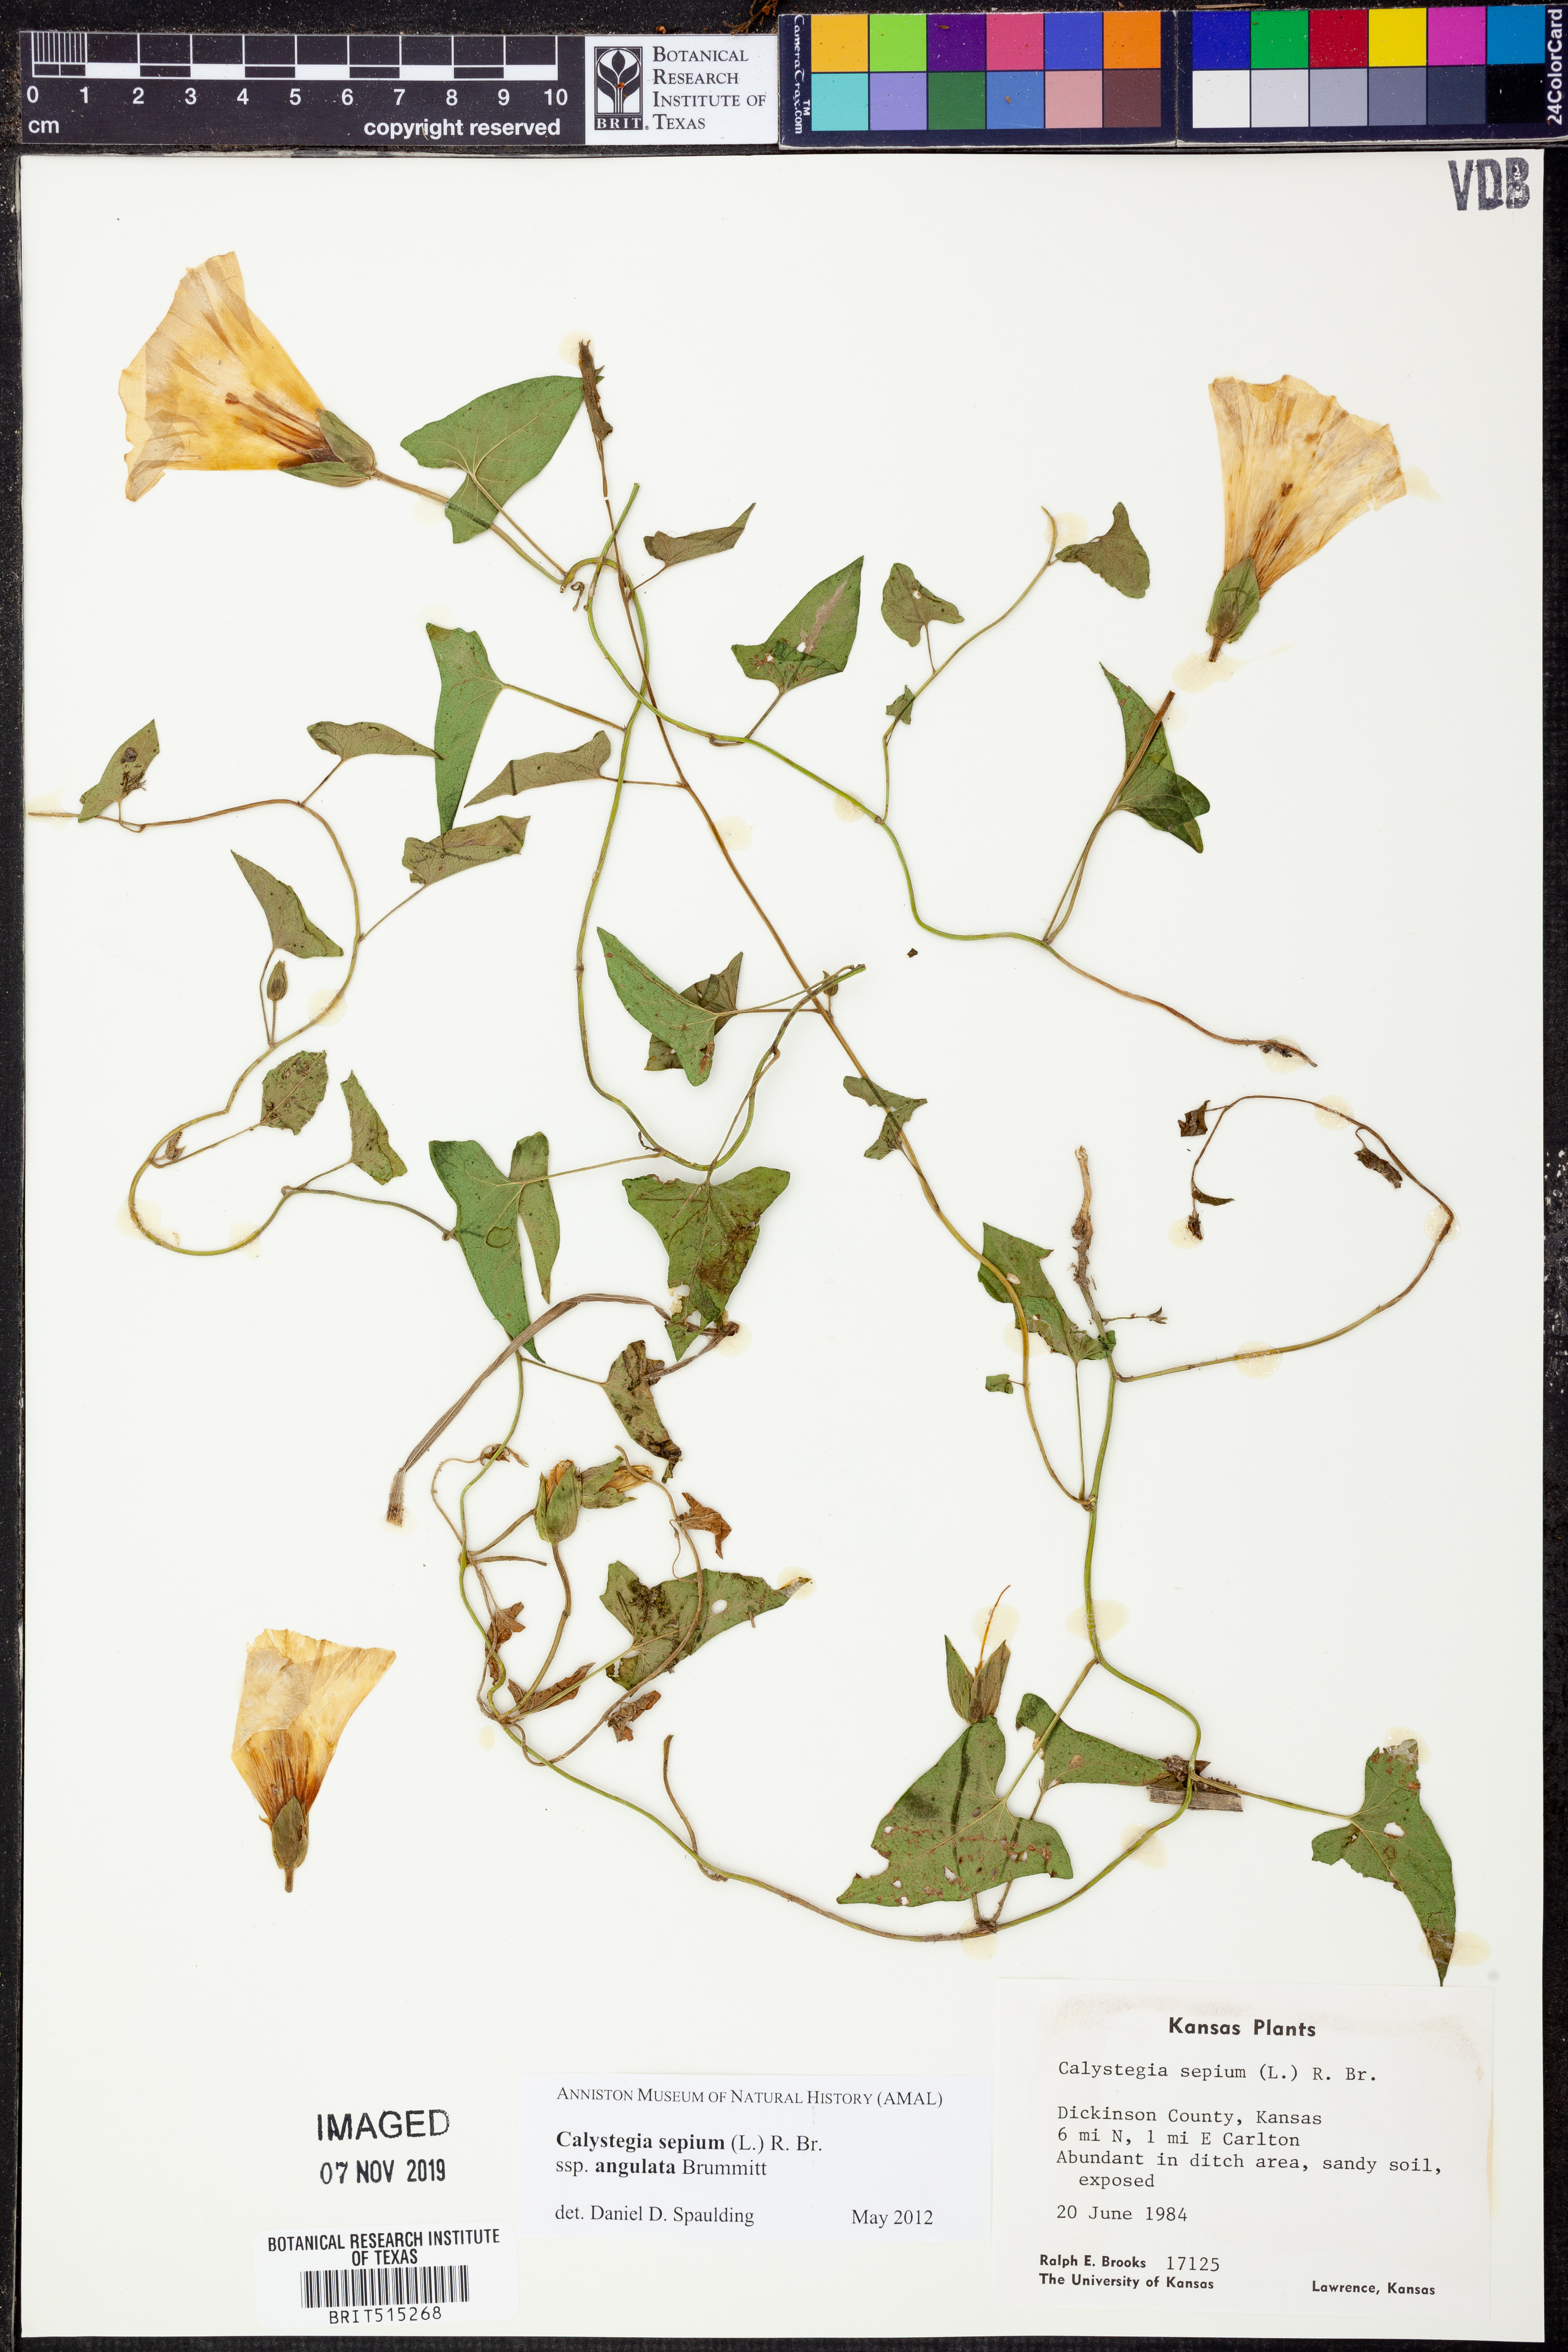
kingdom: Plantae
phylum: Tracheophyta
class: Magnoliopsida
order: Solanales
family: Convolvulaceae
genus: Calystegia
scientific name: Calystegia sepium
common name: Hedge bindweed
